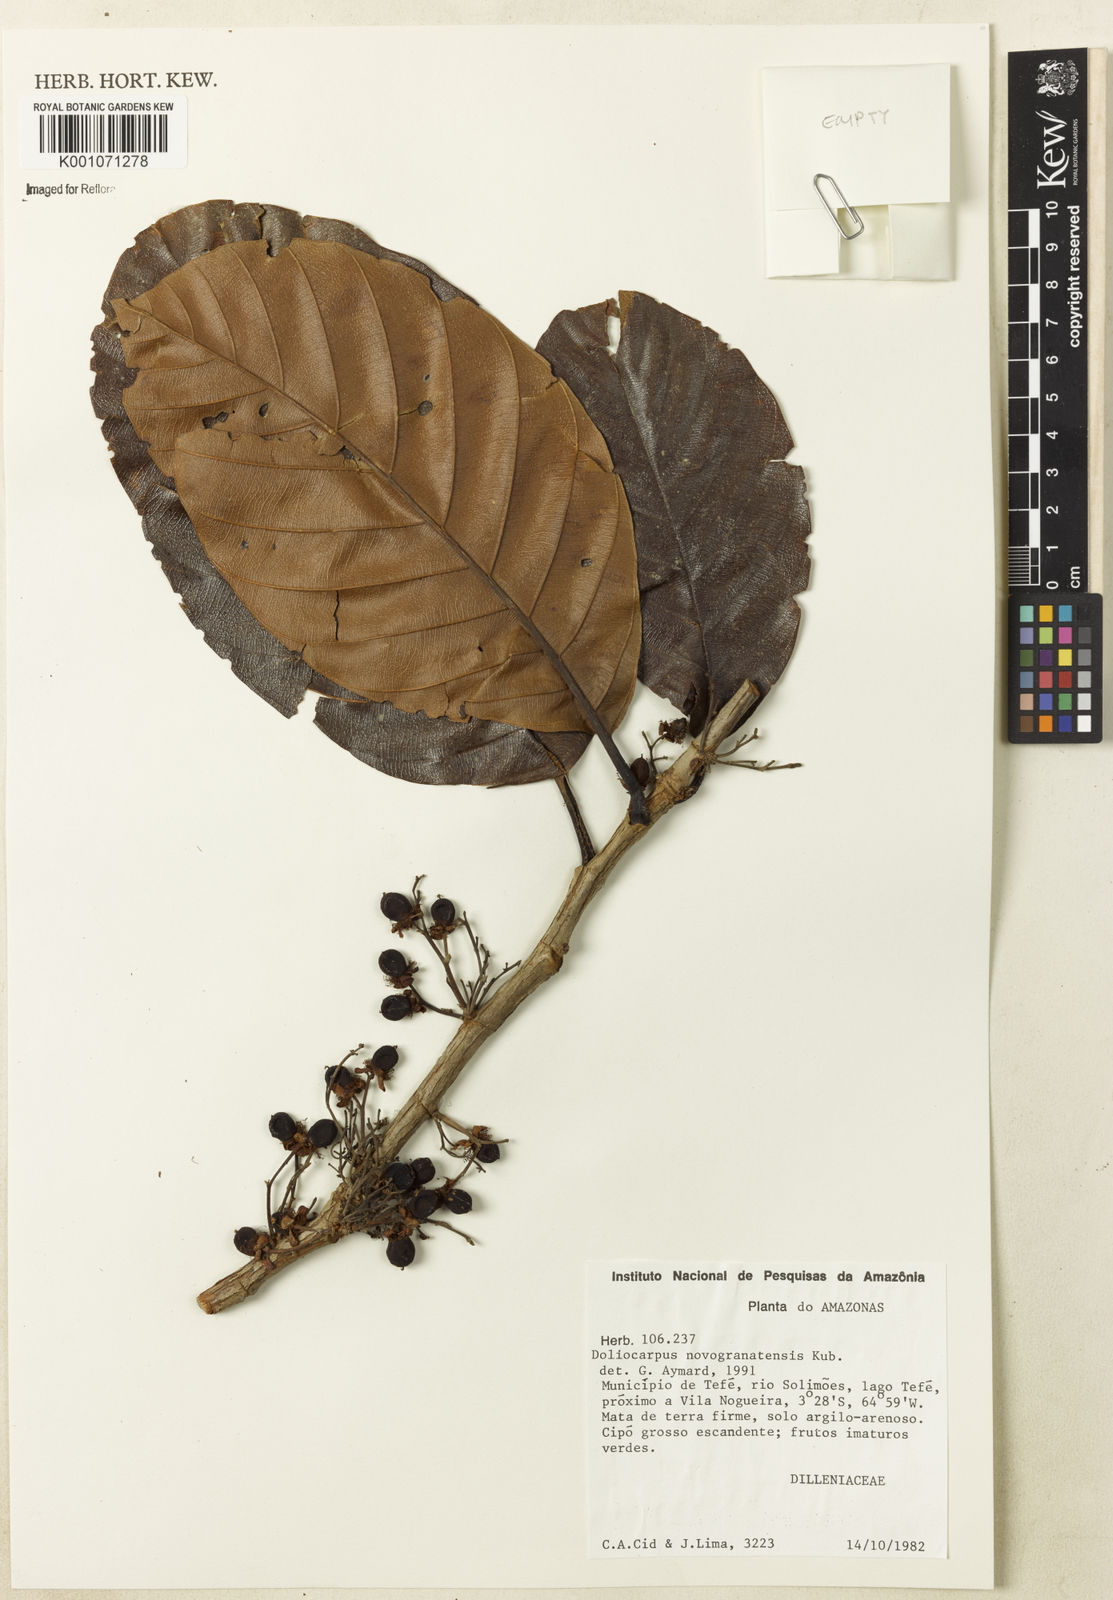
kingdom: Plantae
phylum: Tracheophyta
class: Magnoliopsida
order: Dilleniales
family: Dilleniaceae
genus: Doliocarpus
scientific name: Doliocarpus novogranatensis
